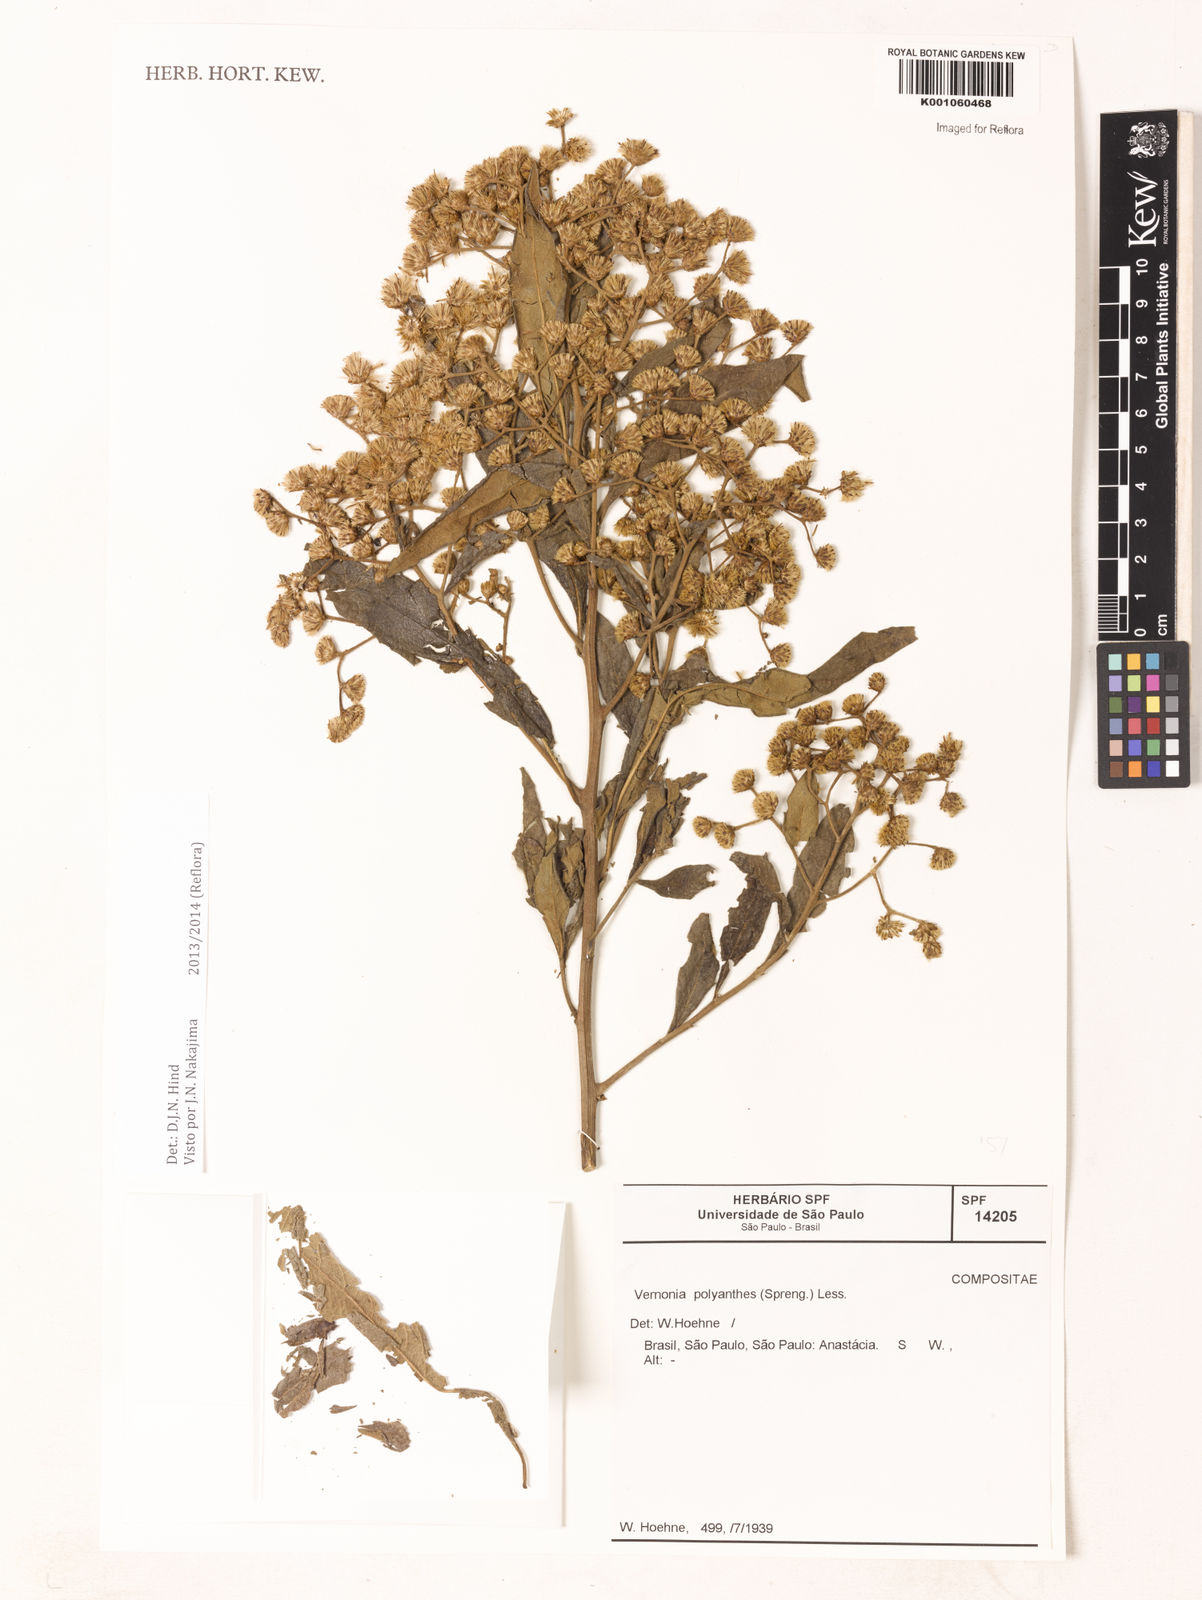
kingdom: Plantae
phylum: Tracheophyta
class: Magnoliopsida
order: Asterales
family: Asteraceae
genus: Vernonanthura
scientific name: Vernonanthura polyanthes
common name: Tree aster
